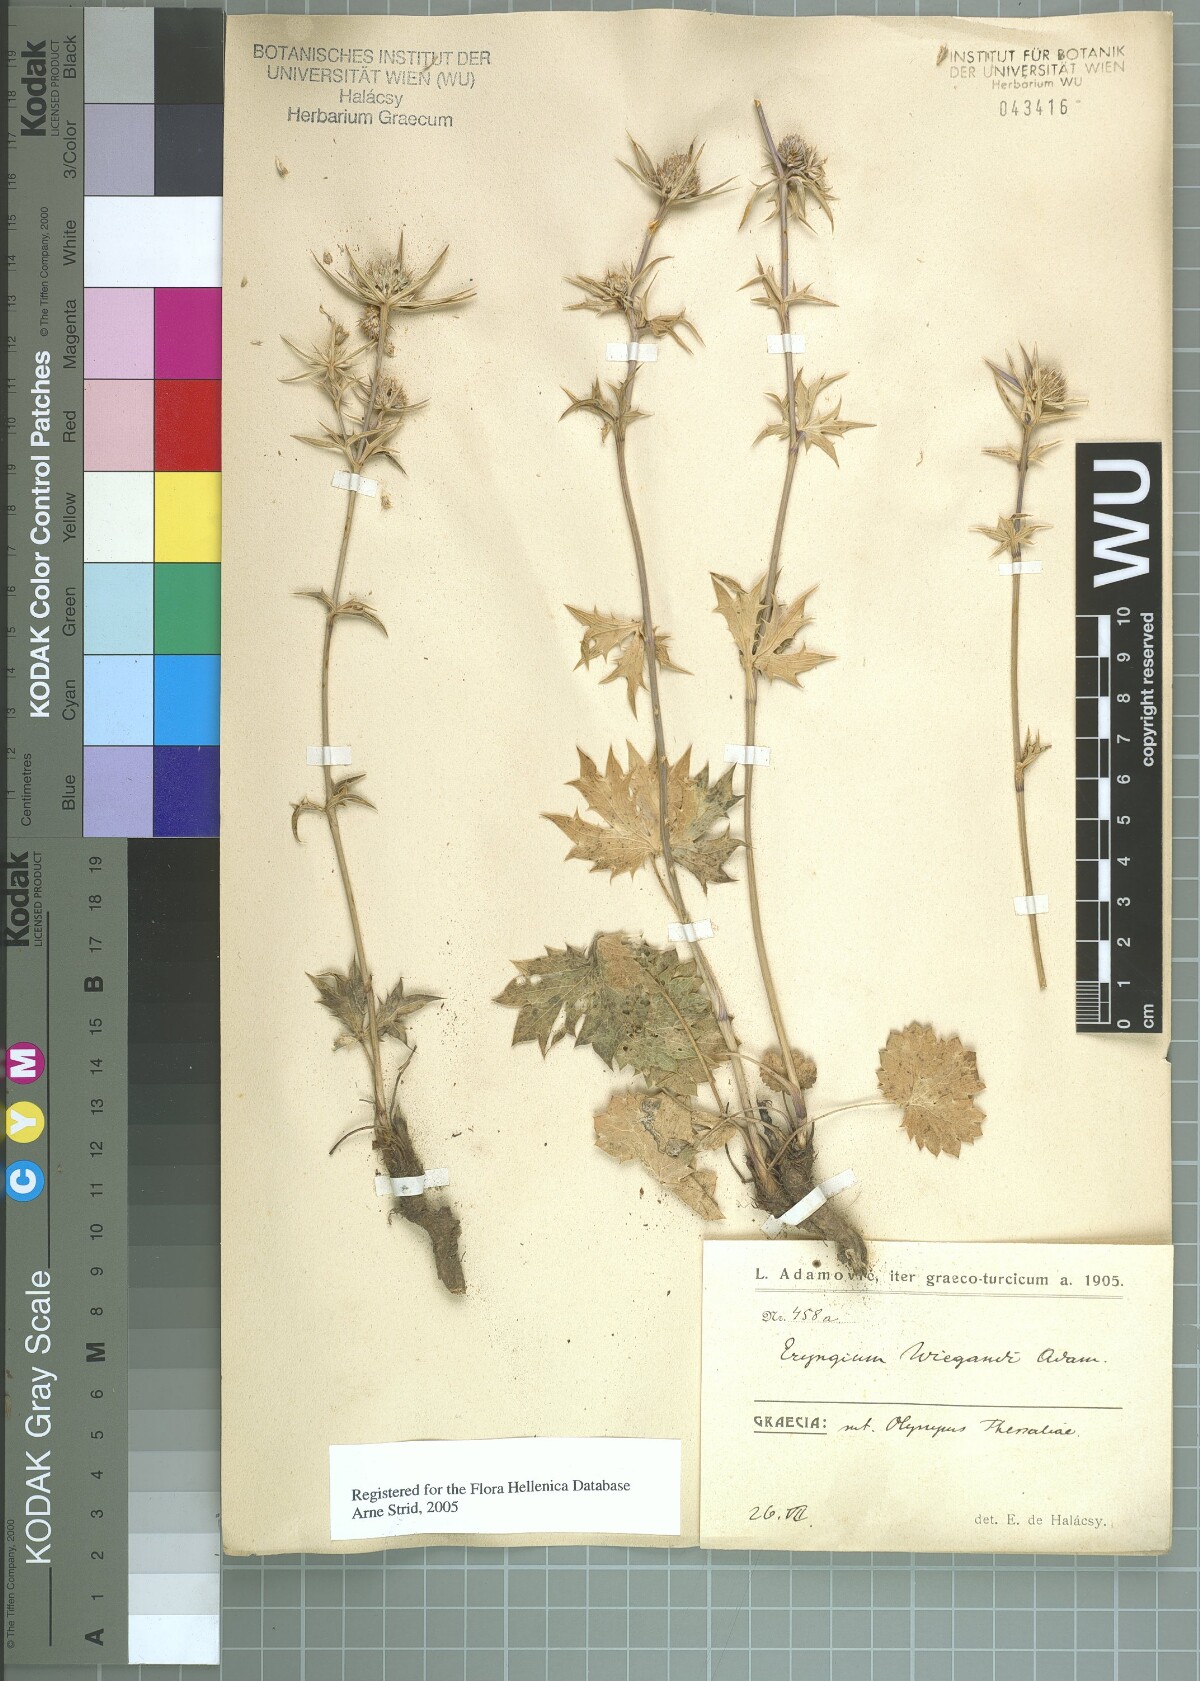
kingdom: Plantae
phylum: Tracheophyta
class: Magnoliopsida
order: Apiales
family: Apiaceae
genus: Eryngium
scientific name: Eryngium wiegandii
